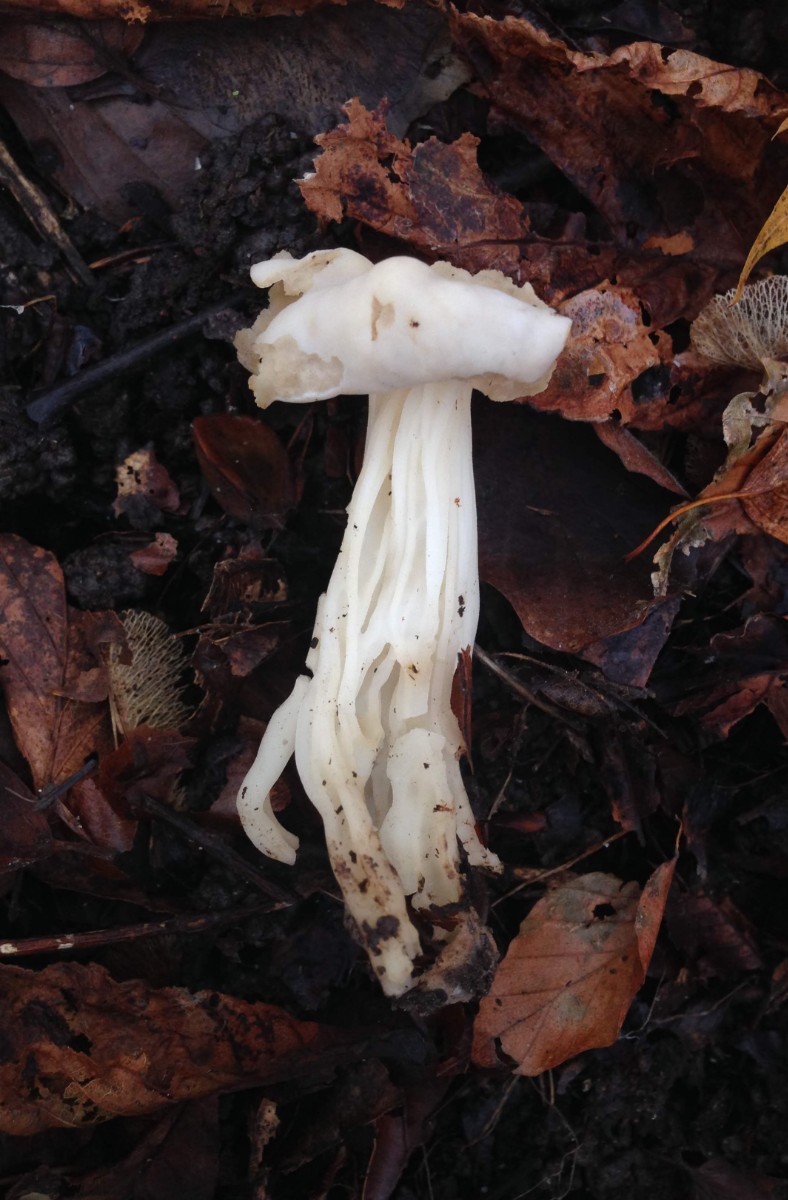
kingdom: Fungi
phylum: Ascomycota
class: Pezizomycetes
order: Pezizales
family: Helvellaceae
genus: Helvella
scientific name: Helvella crispa
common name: kruset foldhat
